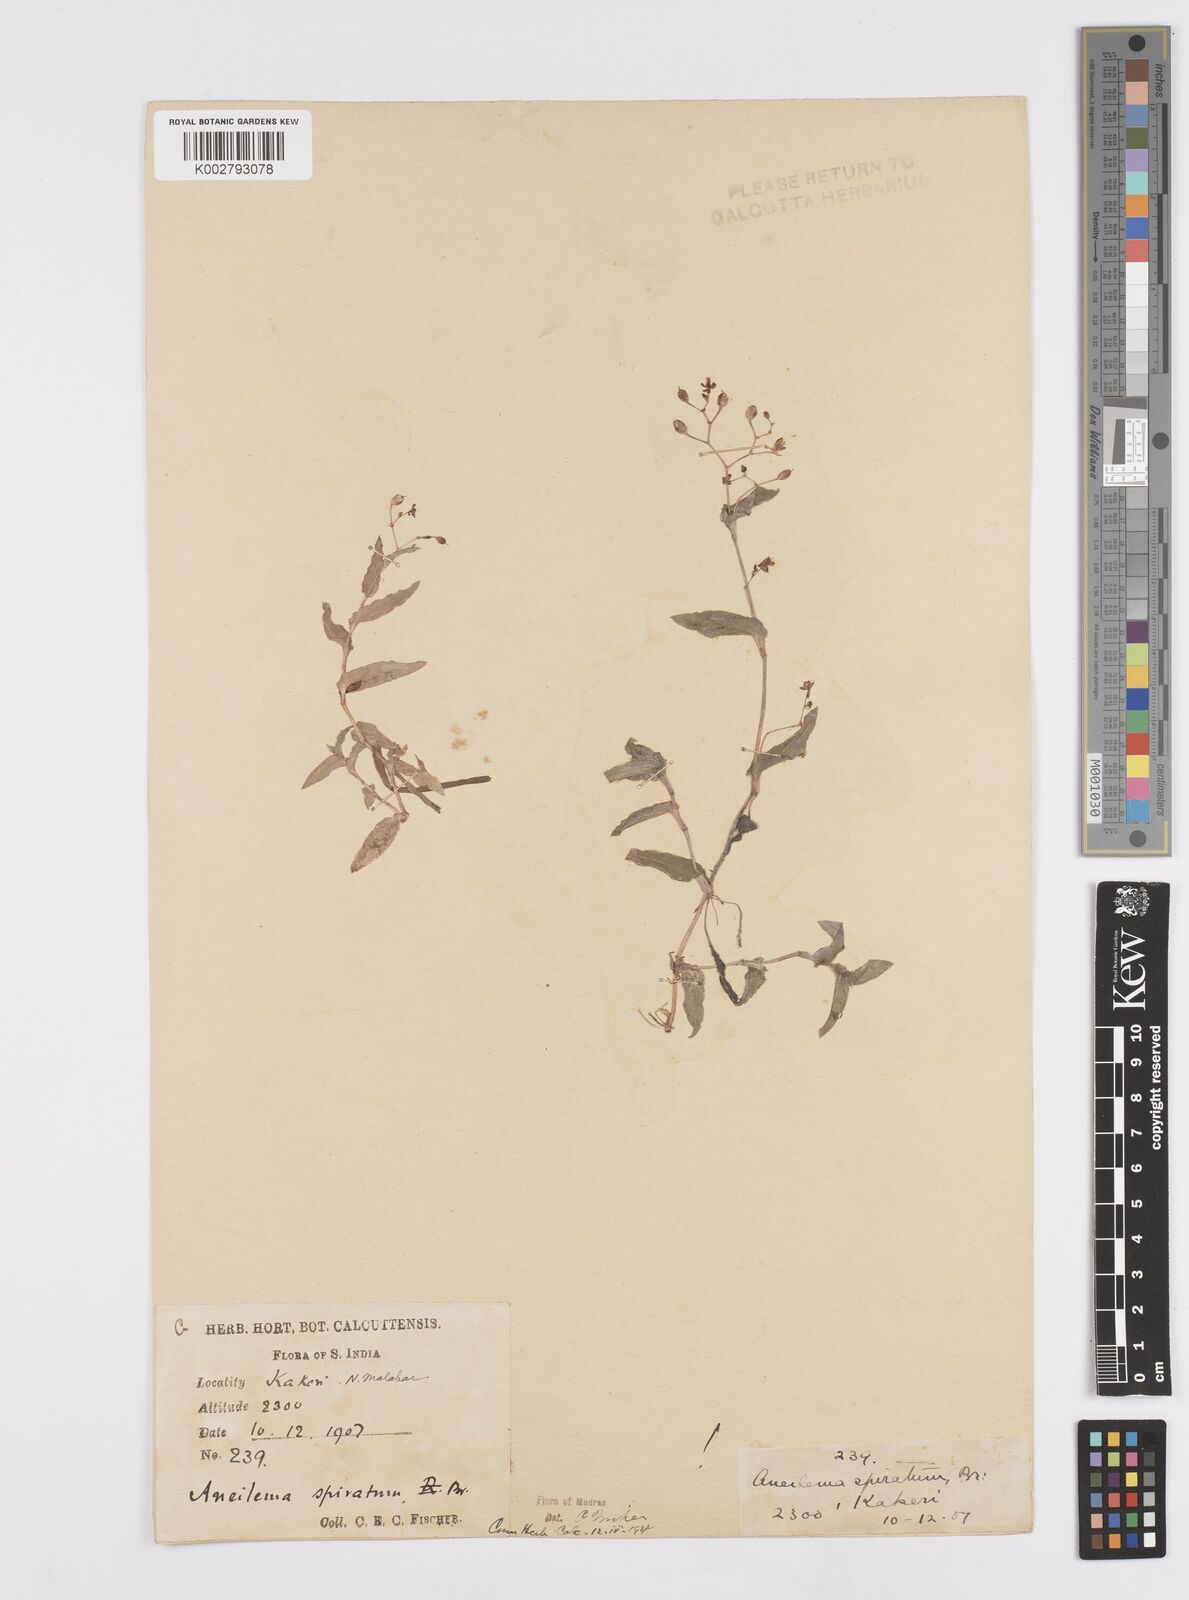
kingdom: Plantae
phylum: Tracheophyta
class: Liliopsida
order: Commelinales
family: Commelinaceae
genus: Murdannia
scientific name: Murdannia spirata
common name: Asiatic dewflower
